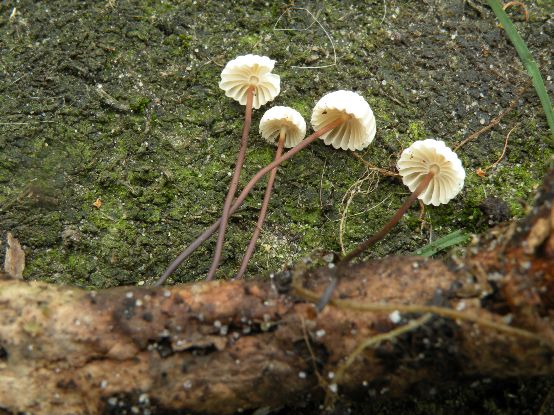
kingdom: Fungi
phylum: Basidiomycota
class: Agaricomycetes
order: Agaricales
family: Marasmiaceae
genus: Marasmius
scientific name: Marasmius rotula
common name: hjul-bruskhat
